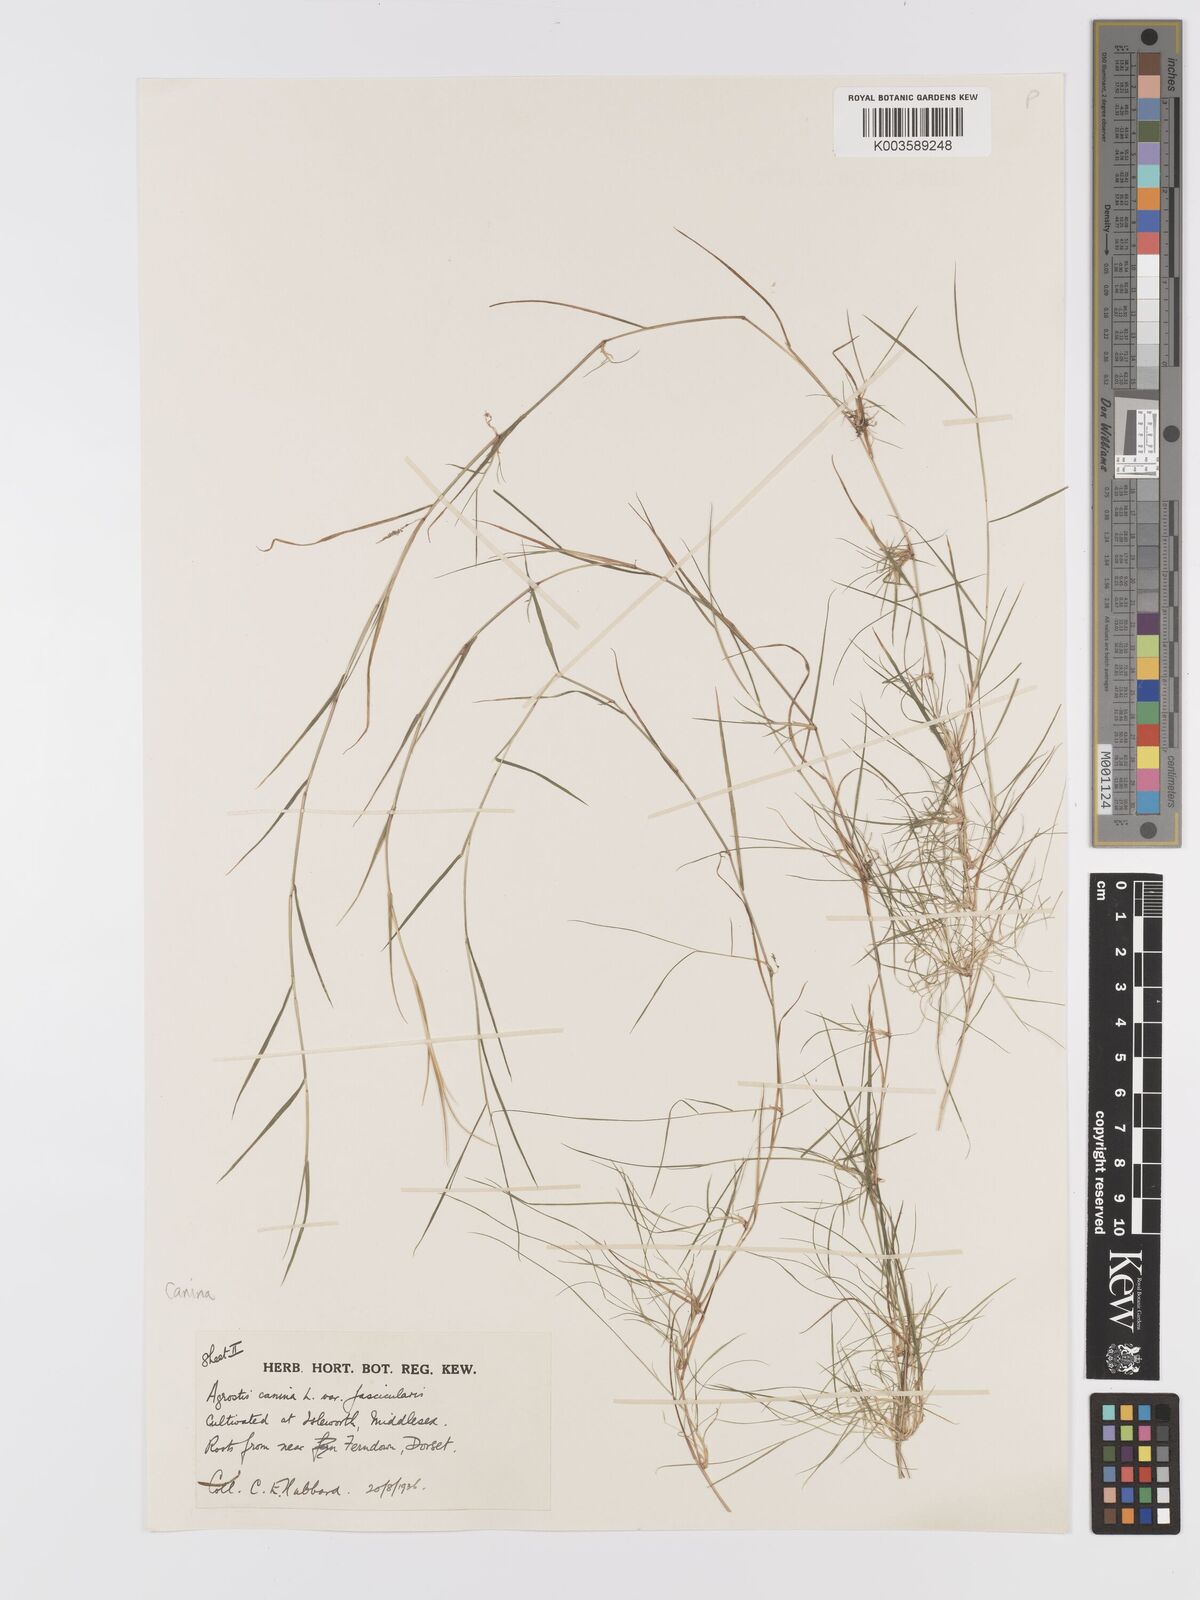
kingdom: Plantae
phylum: Tracheophyta
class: Liliopsida
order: Poales
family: Poaceae
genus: Agrostis
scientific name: Agrostis canina
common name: Velvet bent
